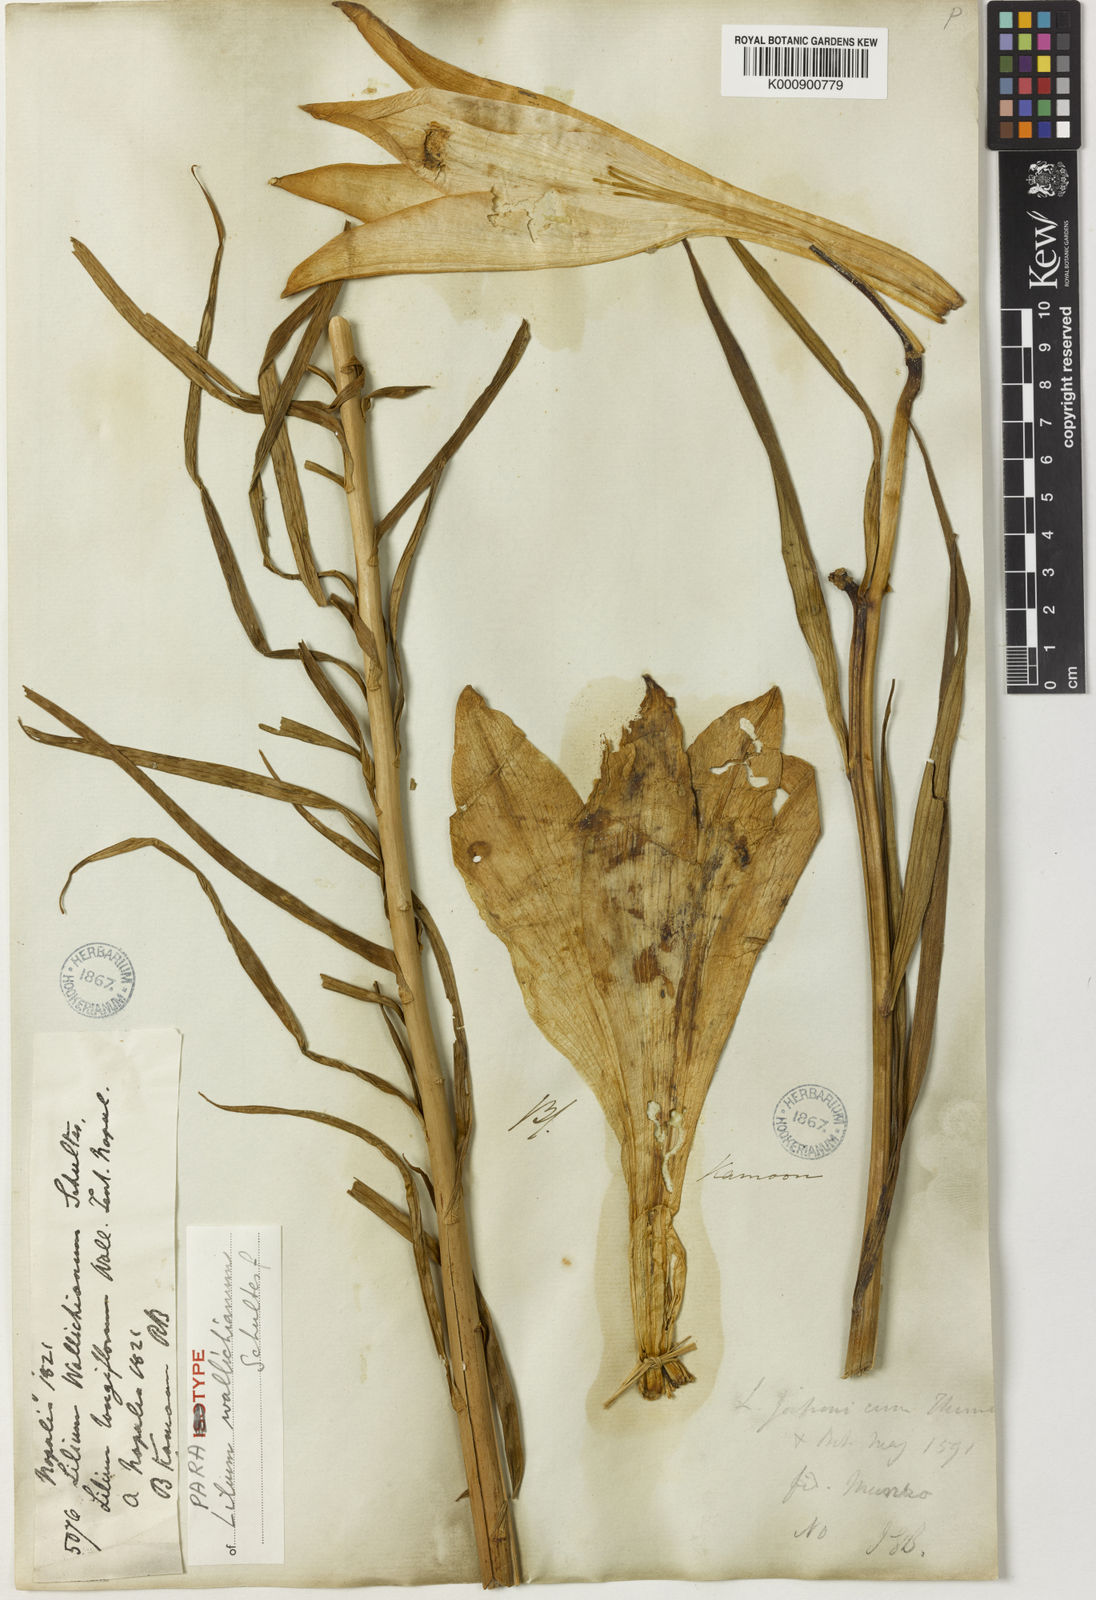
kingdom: Plantae
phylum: Tracheophyta
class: Liliopsida
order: Liliales
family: Liliaceae
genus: Lilium
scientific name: Lilium wallichianum
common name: Wallich's lily
